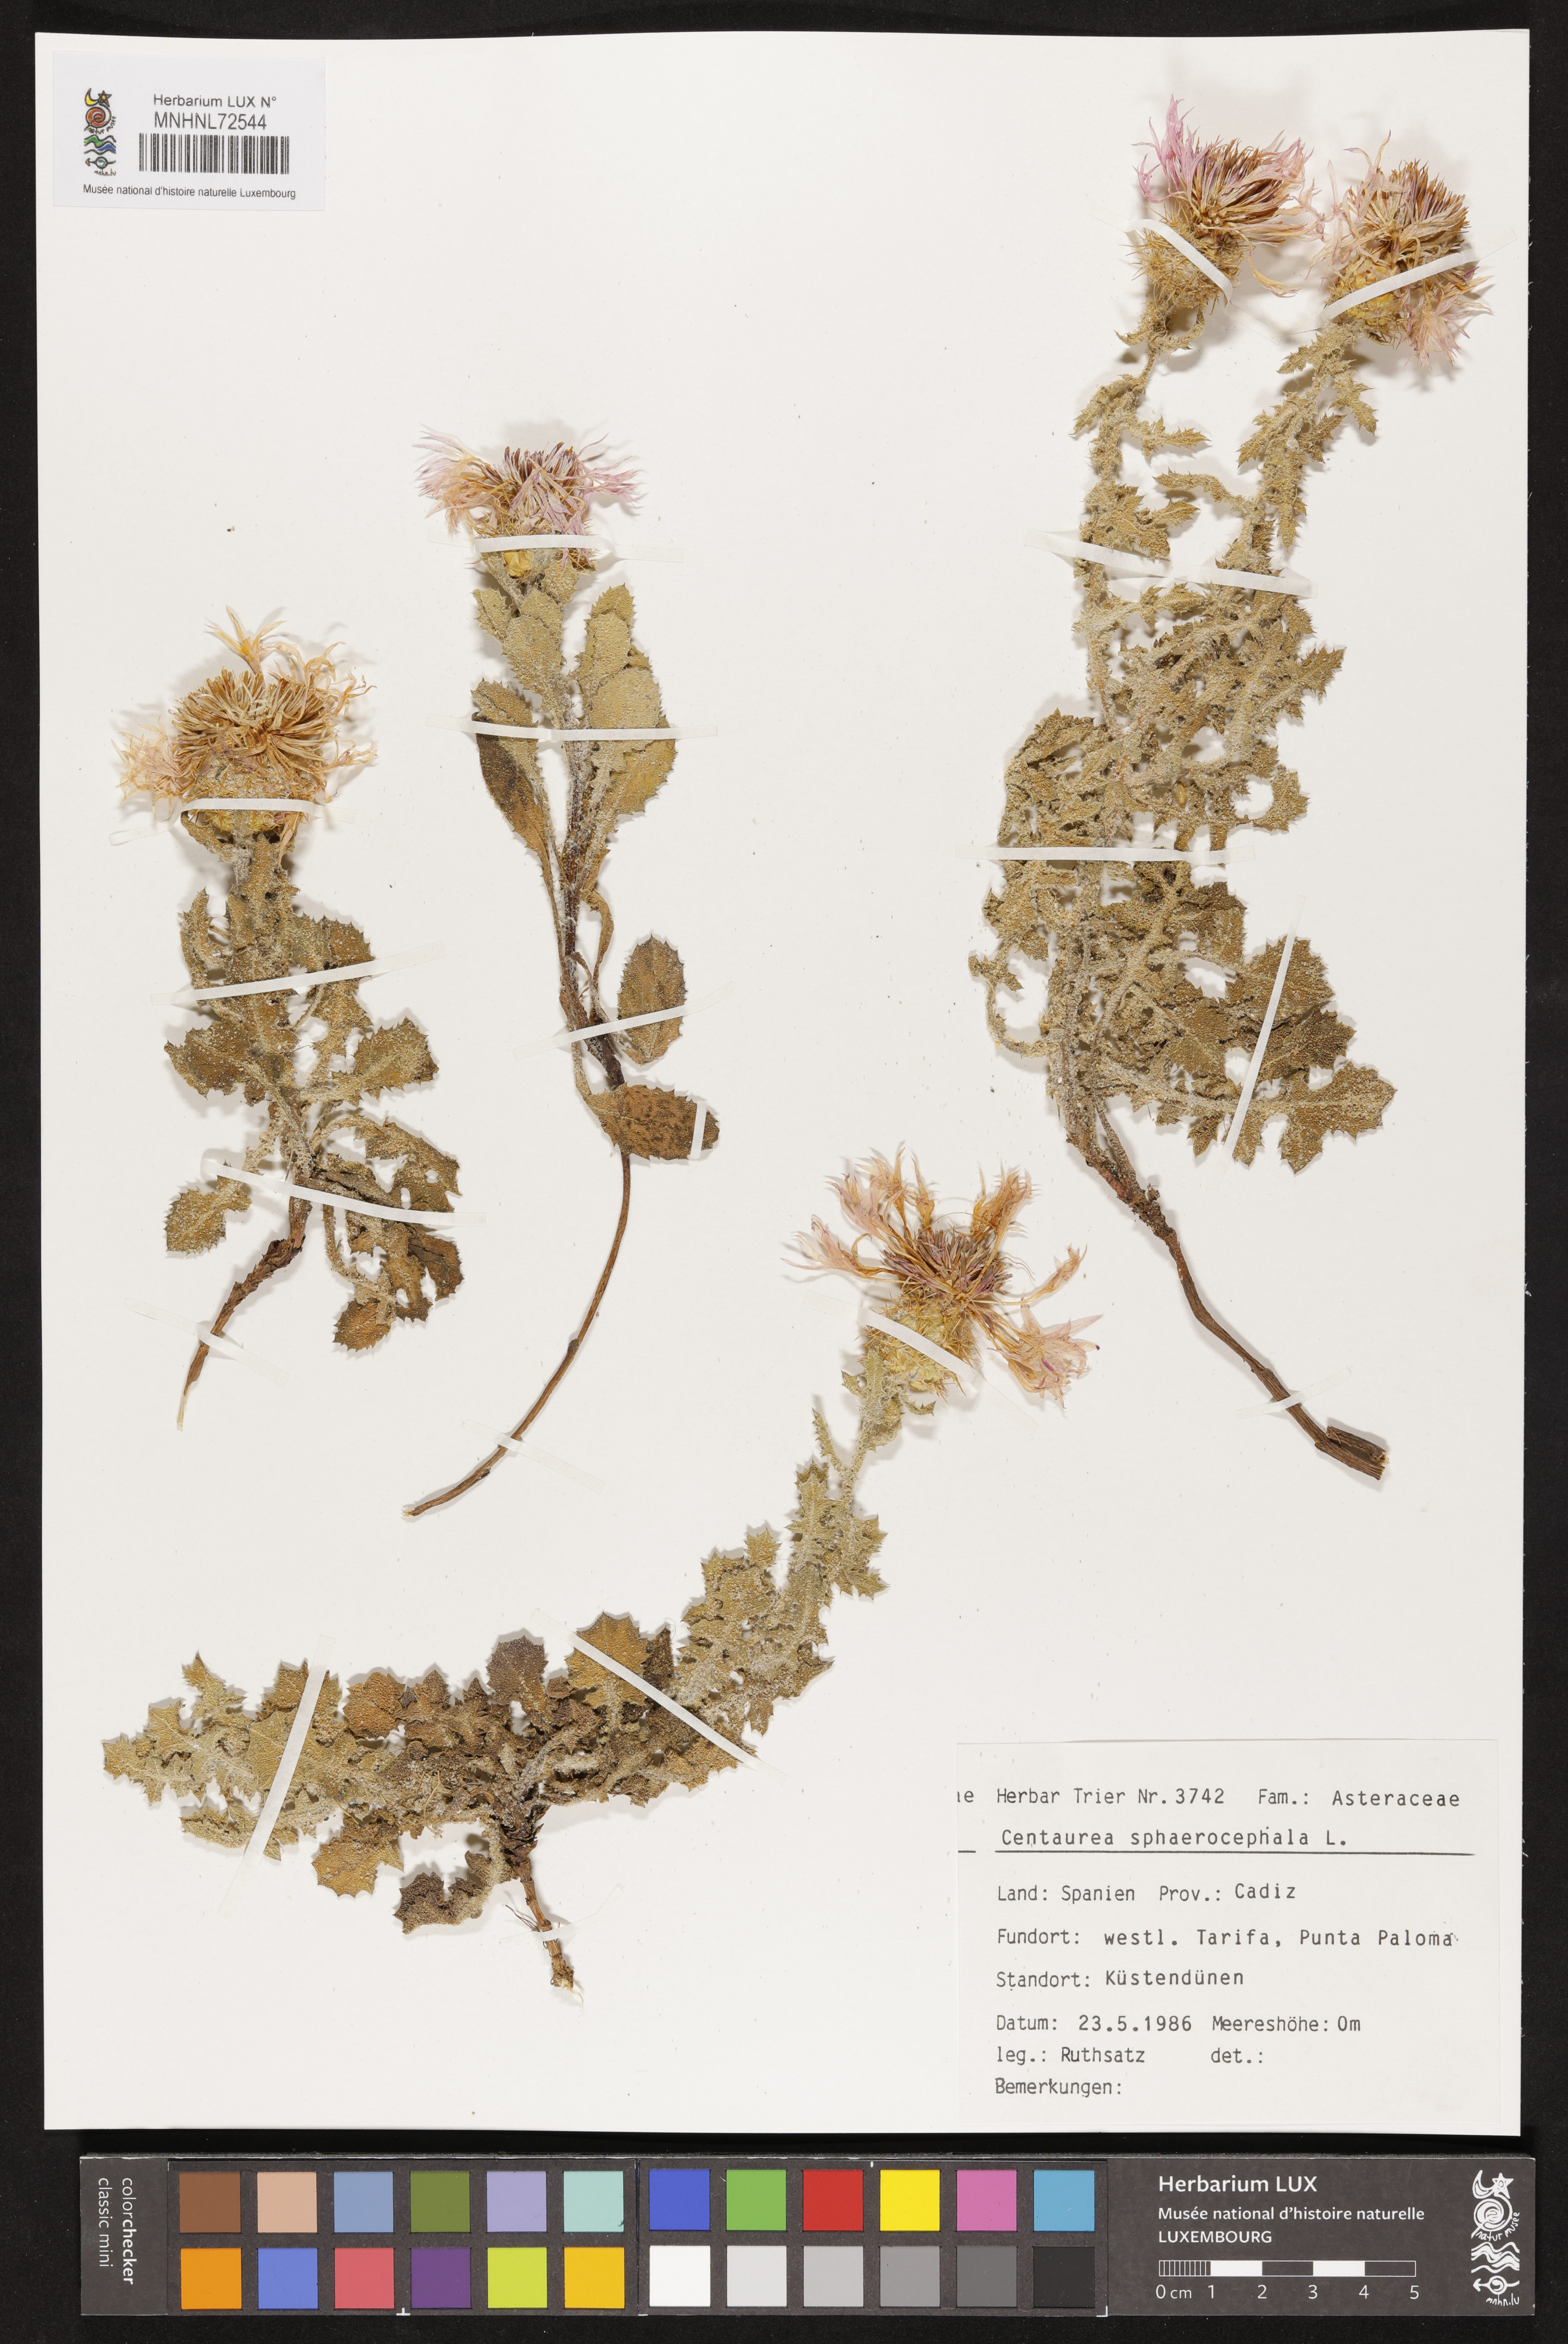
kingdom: Plantae
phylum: Tracheophyta
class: Magnoliopsida
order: Asterales
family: Asteraceae
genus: Centaurea
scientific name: Centaurea sphaerocephala
